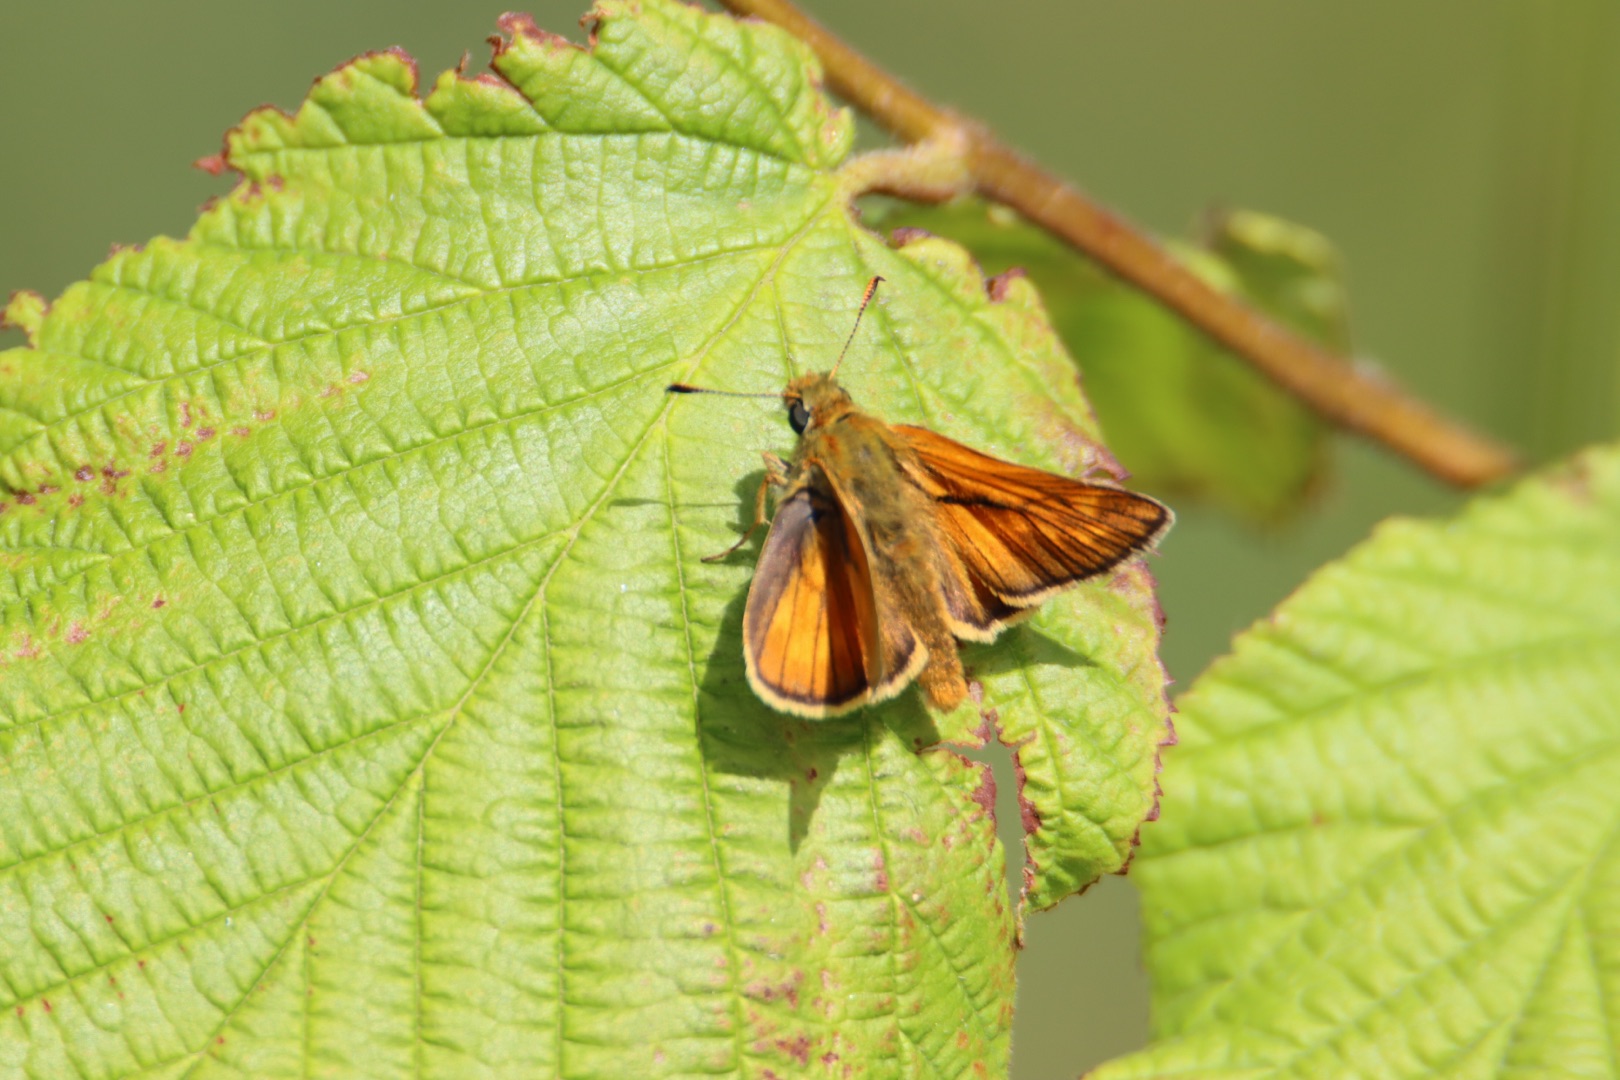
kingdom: Animalia
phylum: Arthropoda
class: Insecta
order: Lepidoptera
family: Hesperiidae
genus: Ochlodes
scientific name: Ochlodes venata
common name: Stor bredpande
